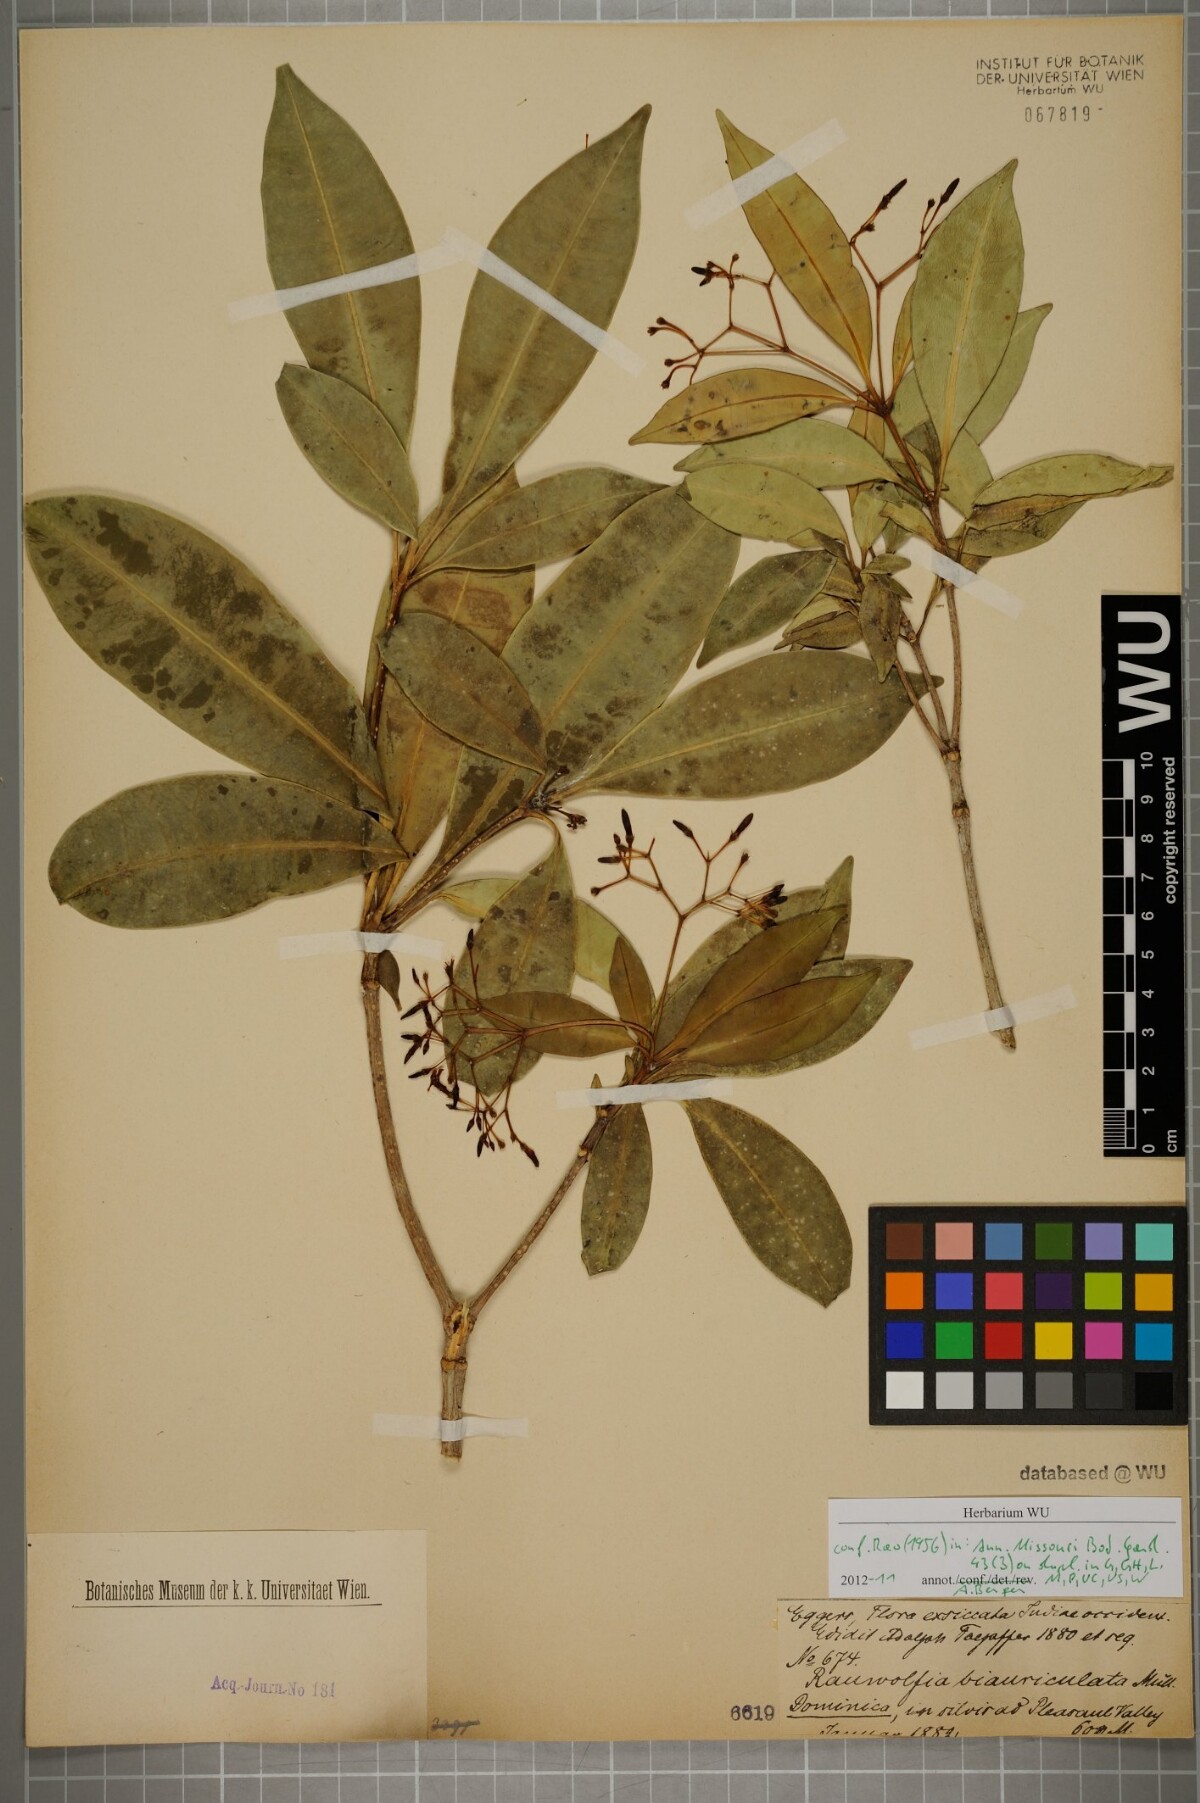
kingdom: Plantae
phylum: Tracheophyta
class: Magnoliopsida
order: Gentianales
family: Apocynaceae
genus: Rauvolfia
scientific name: Rauvolfia biauriculata
